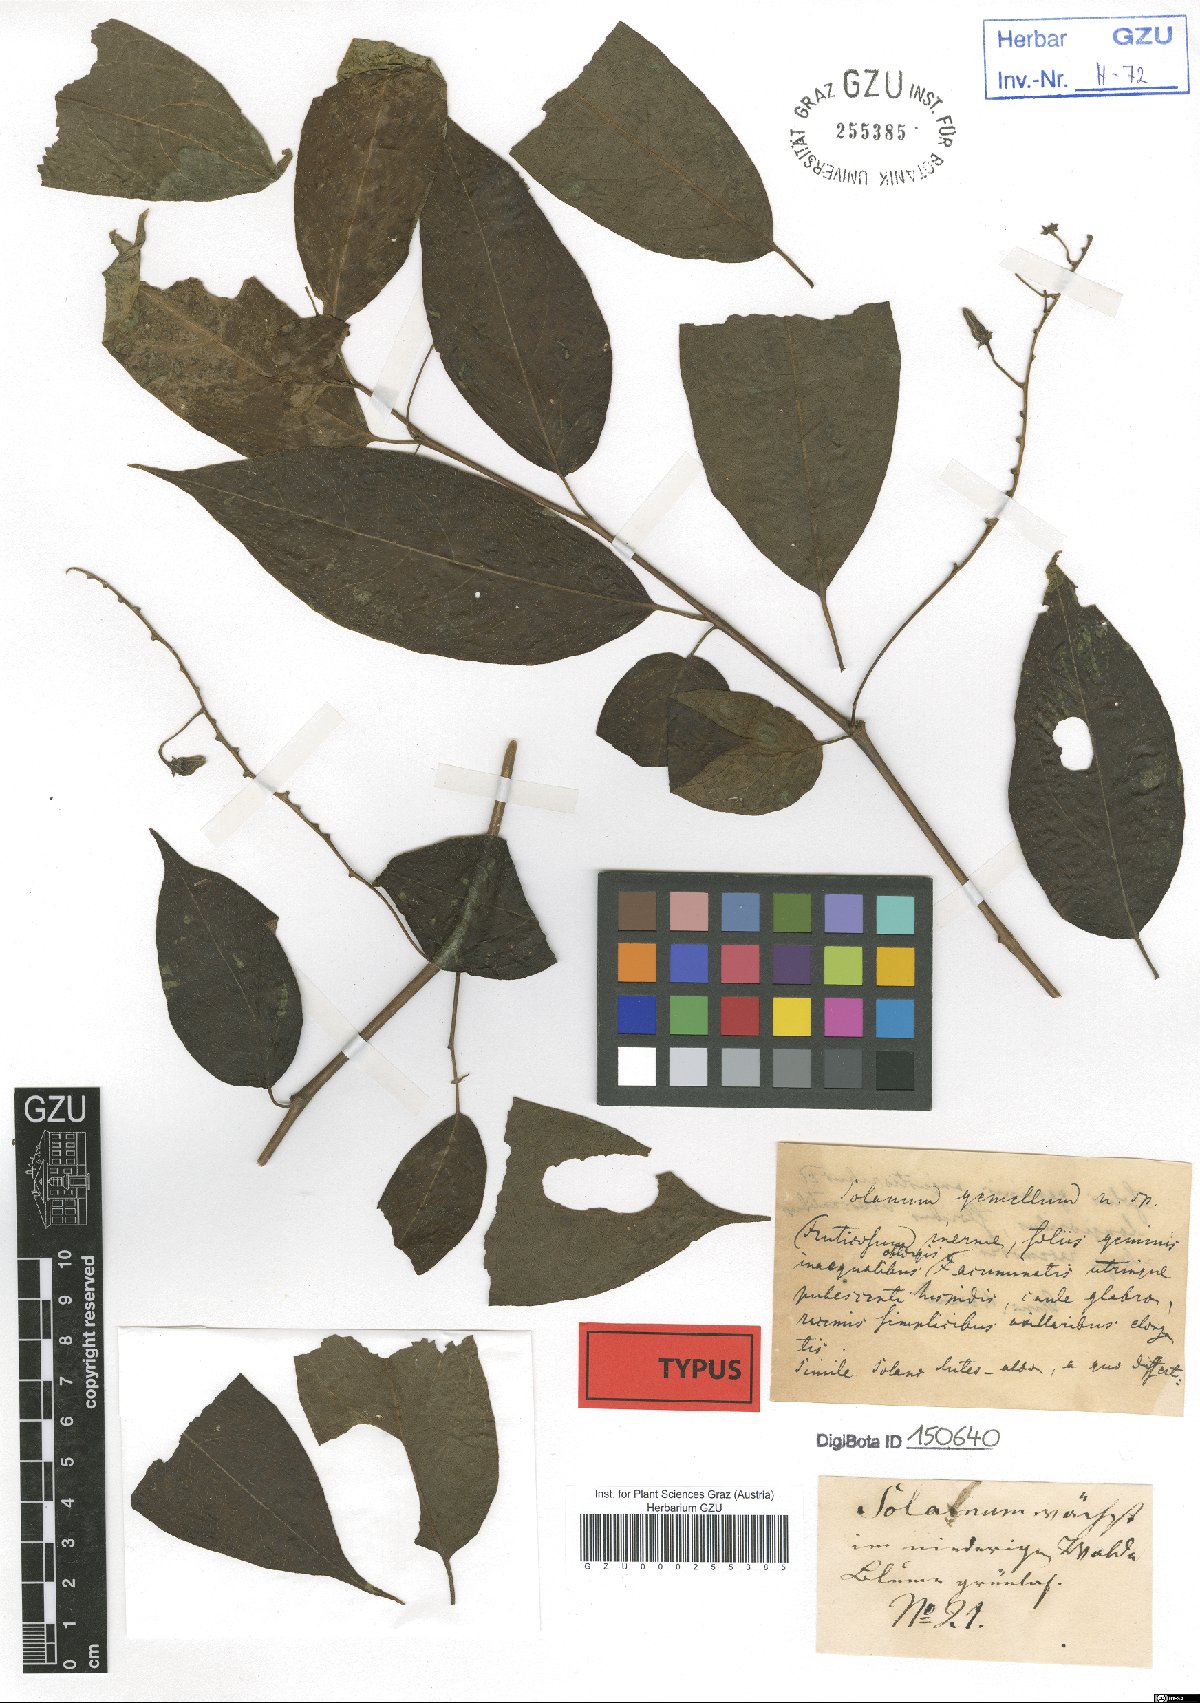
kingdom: Plantae
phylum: Tracheophyta
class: Magnoliopsida
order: Solanales
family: Solanaceae
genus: Solanum
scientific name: Solanum didymum
